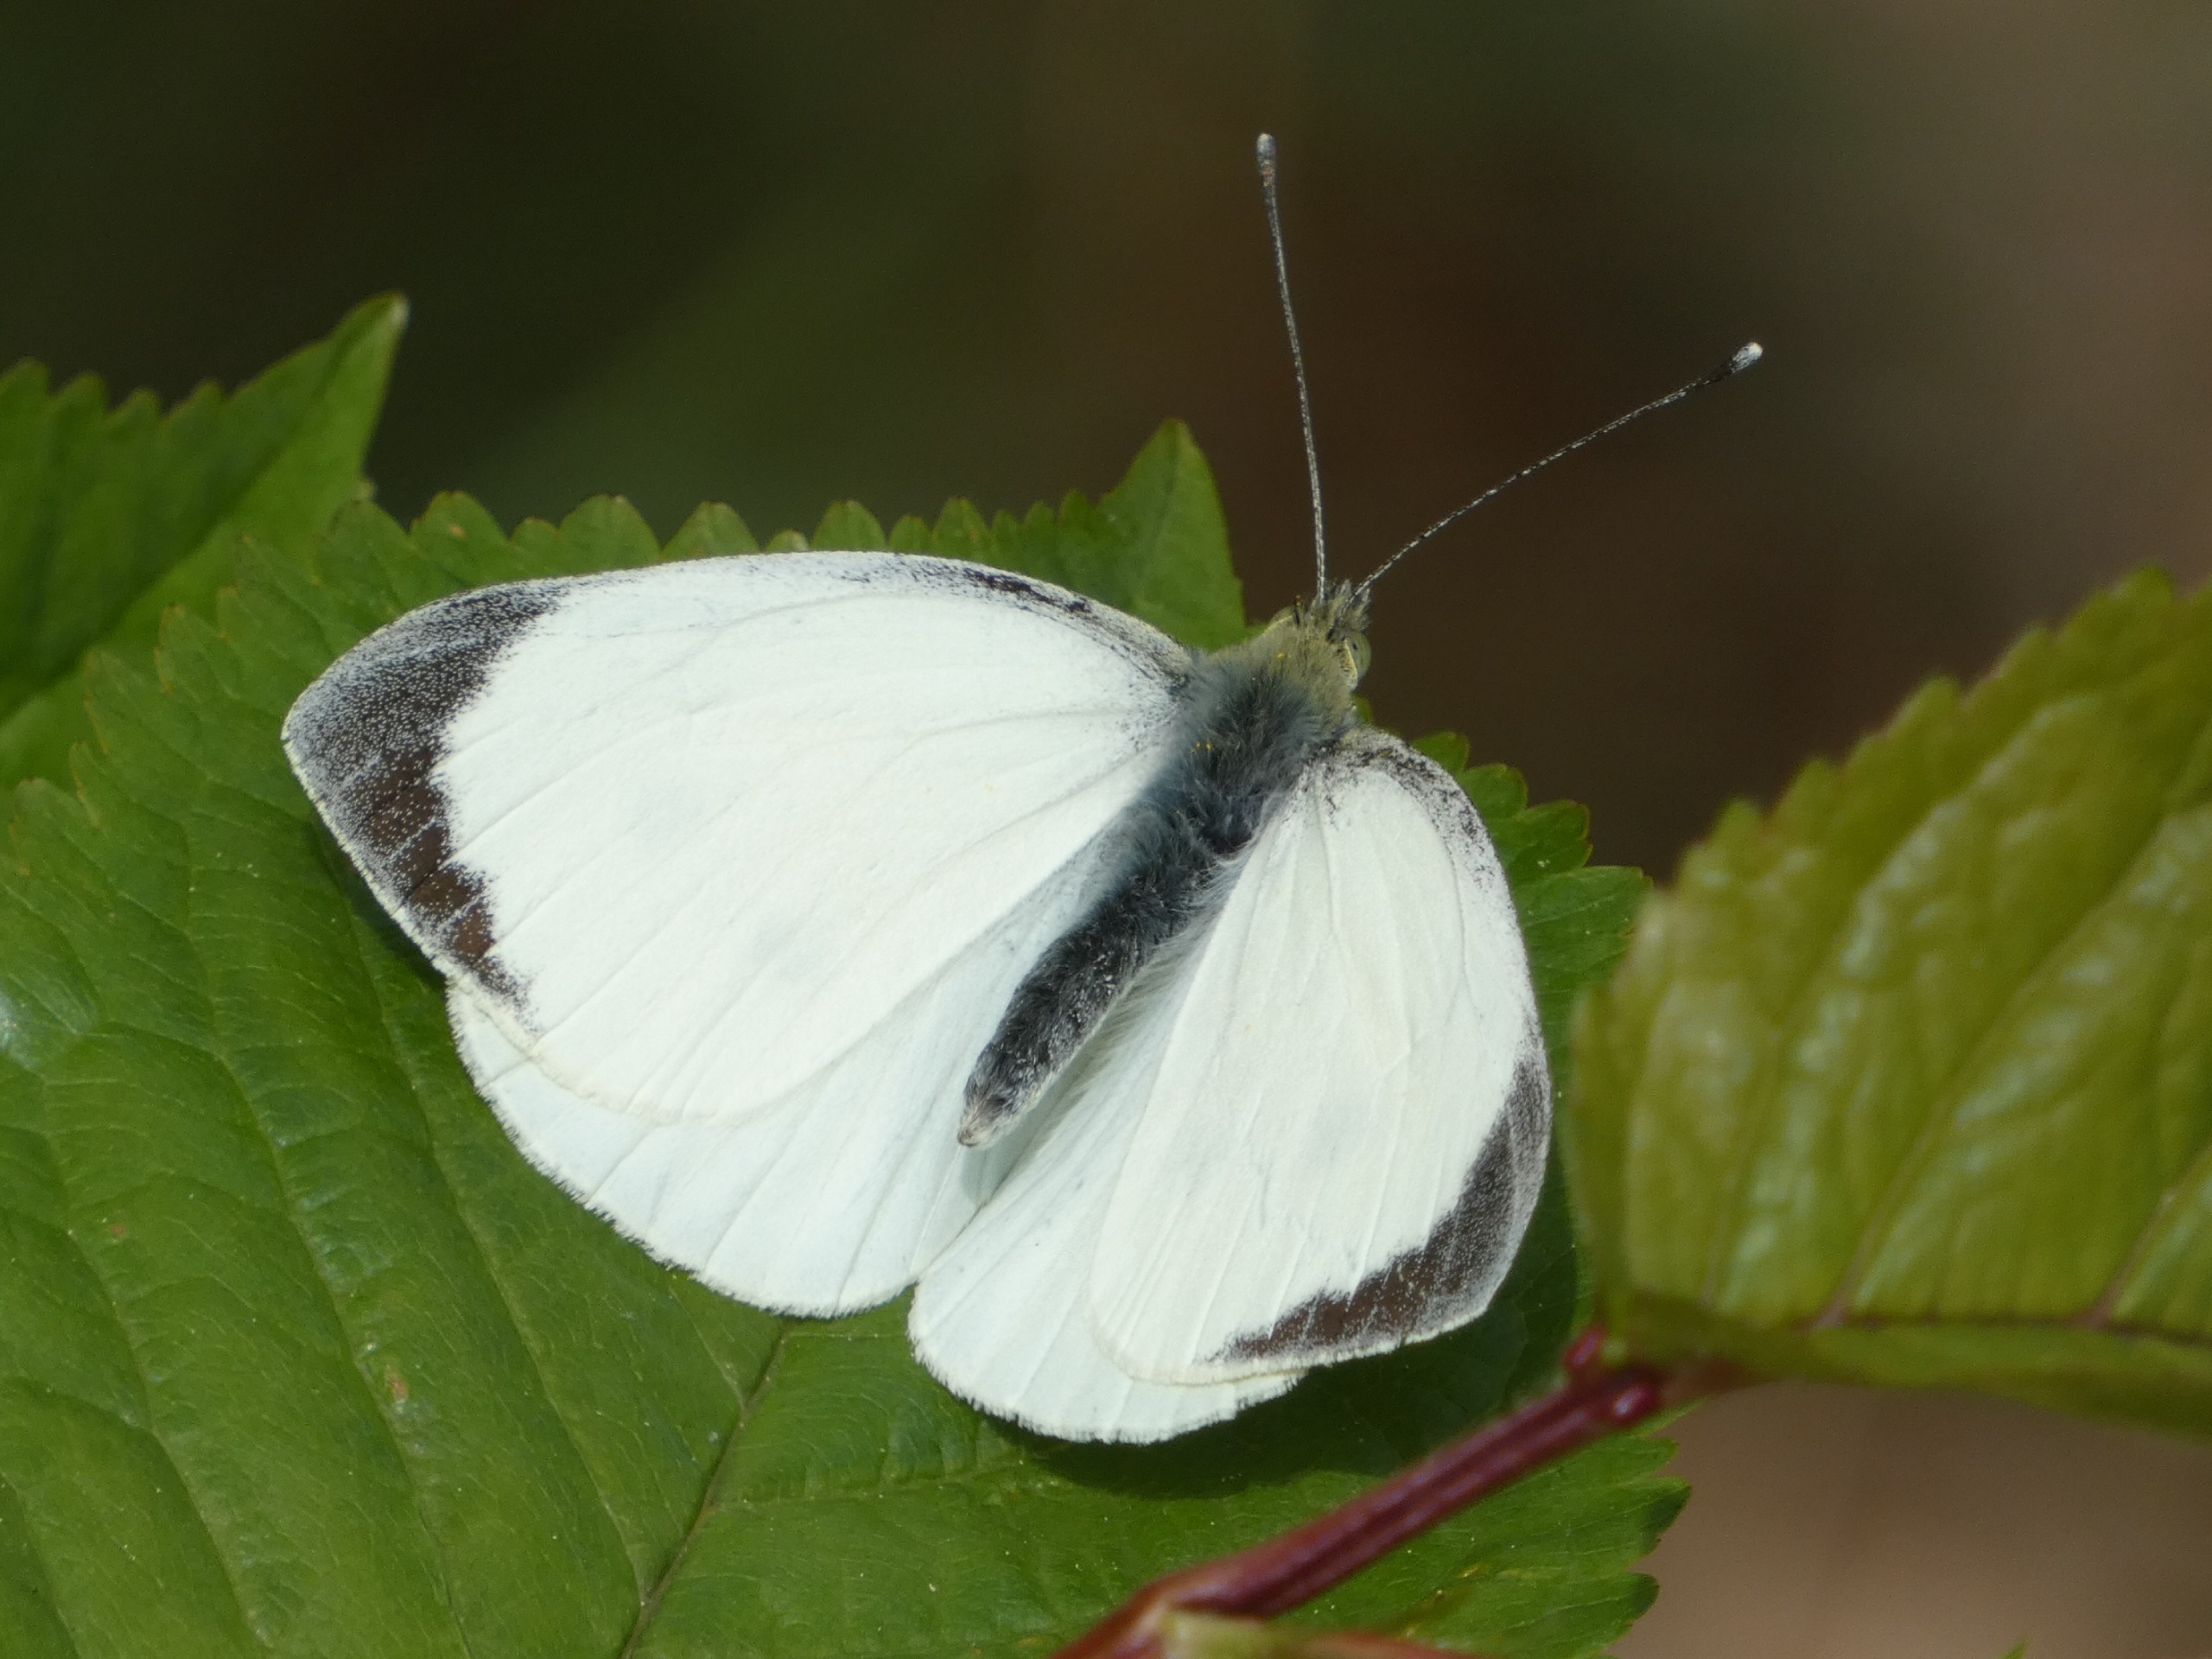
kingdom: Animalia
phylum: Arthropoda
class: Insecta
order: Lepidoptera
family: Pieridae
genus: Pieris
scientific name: Pieris brassicae
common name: Stor kålsommerfugl
